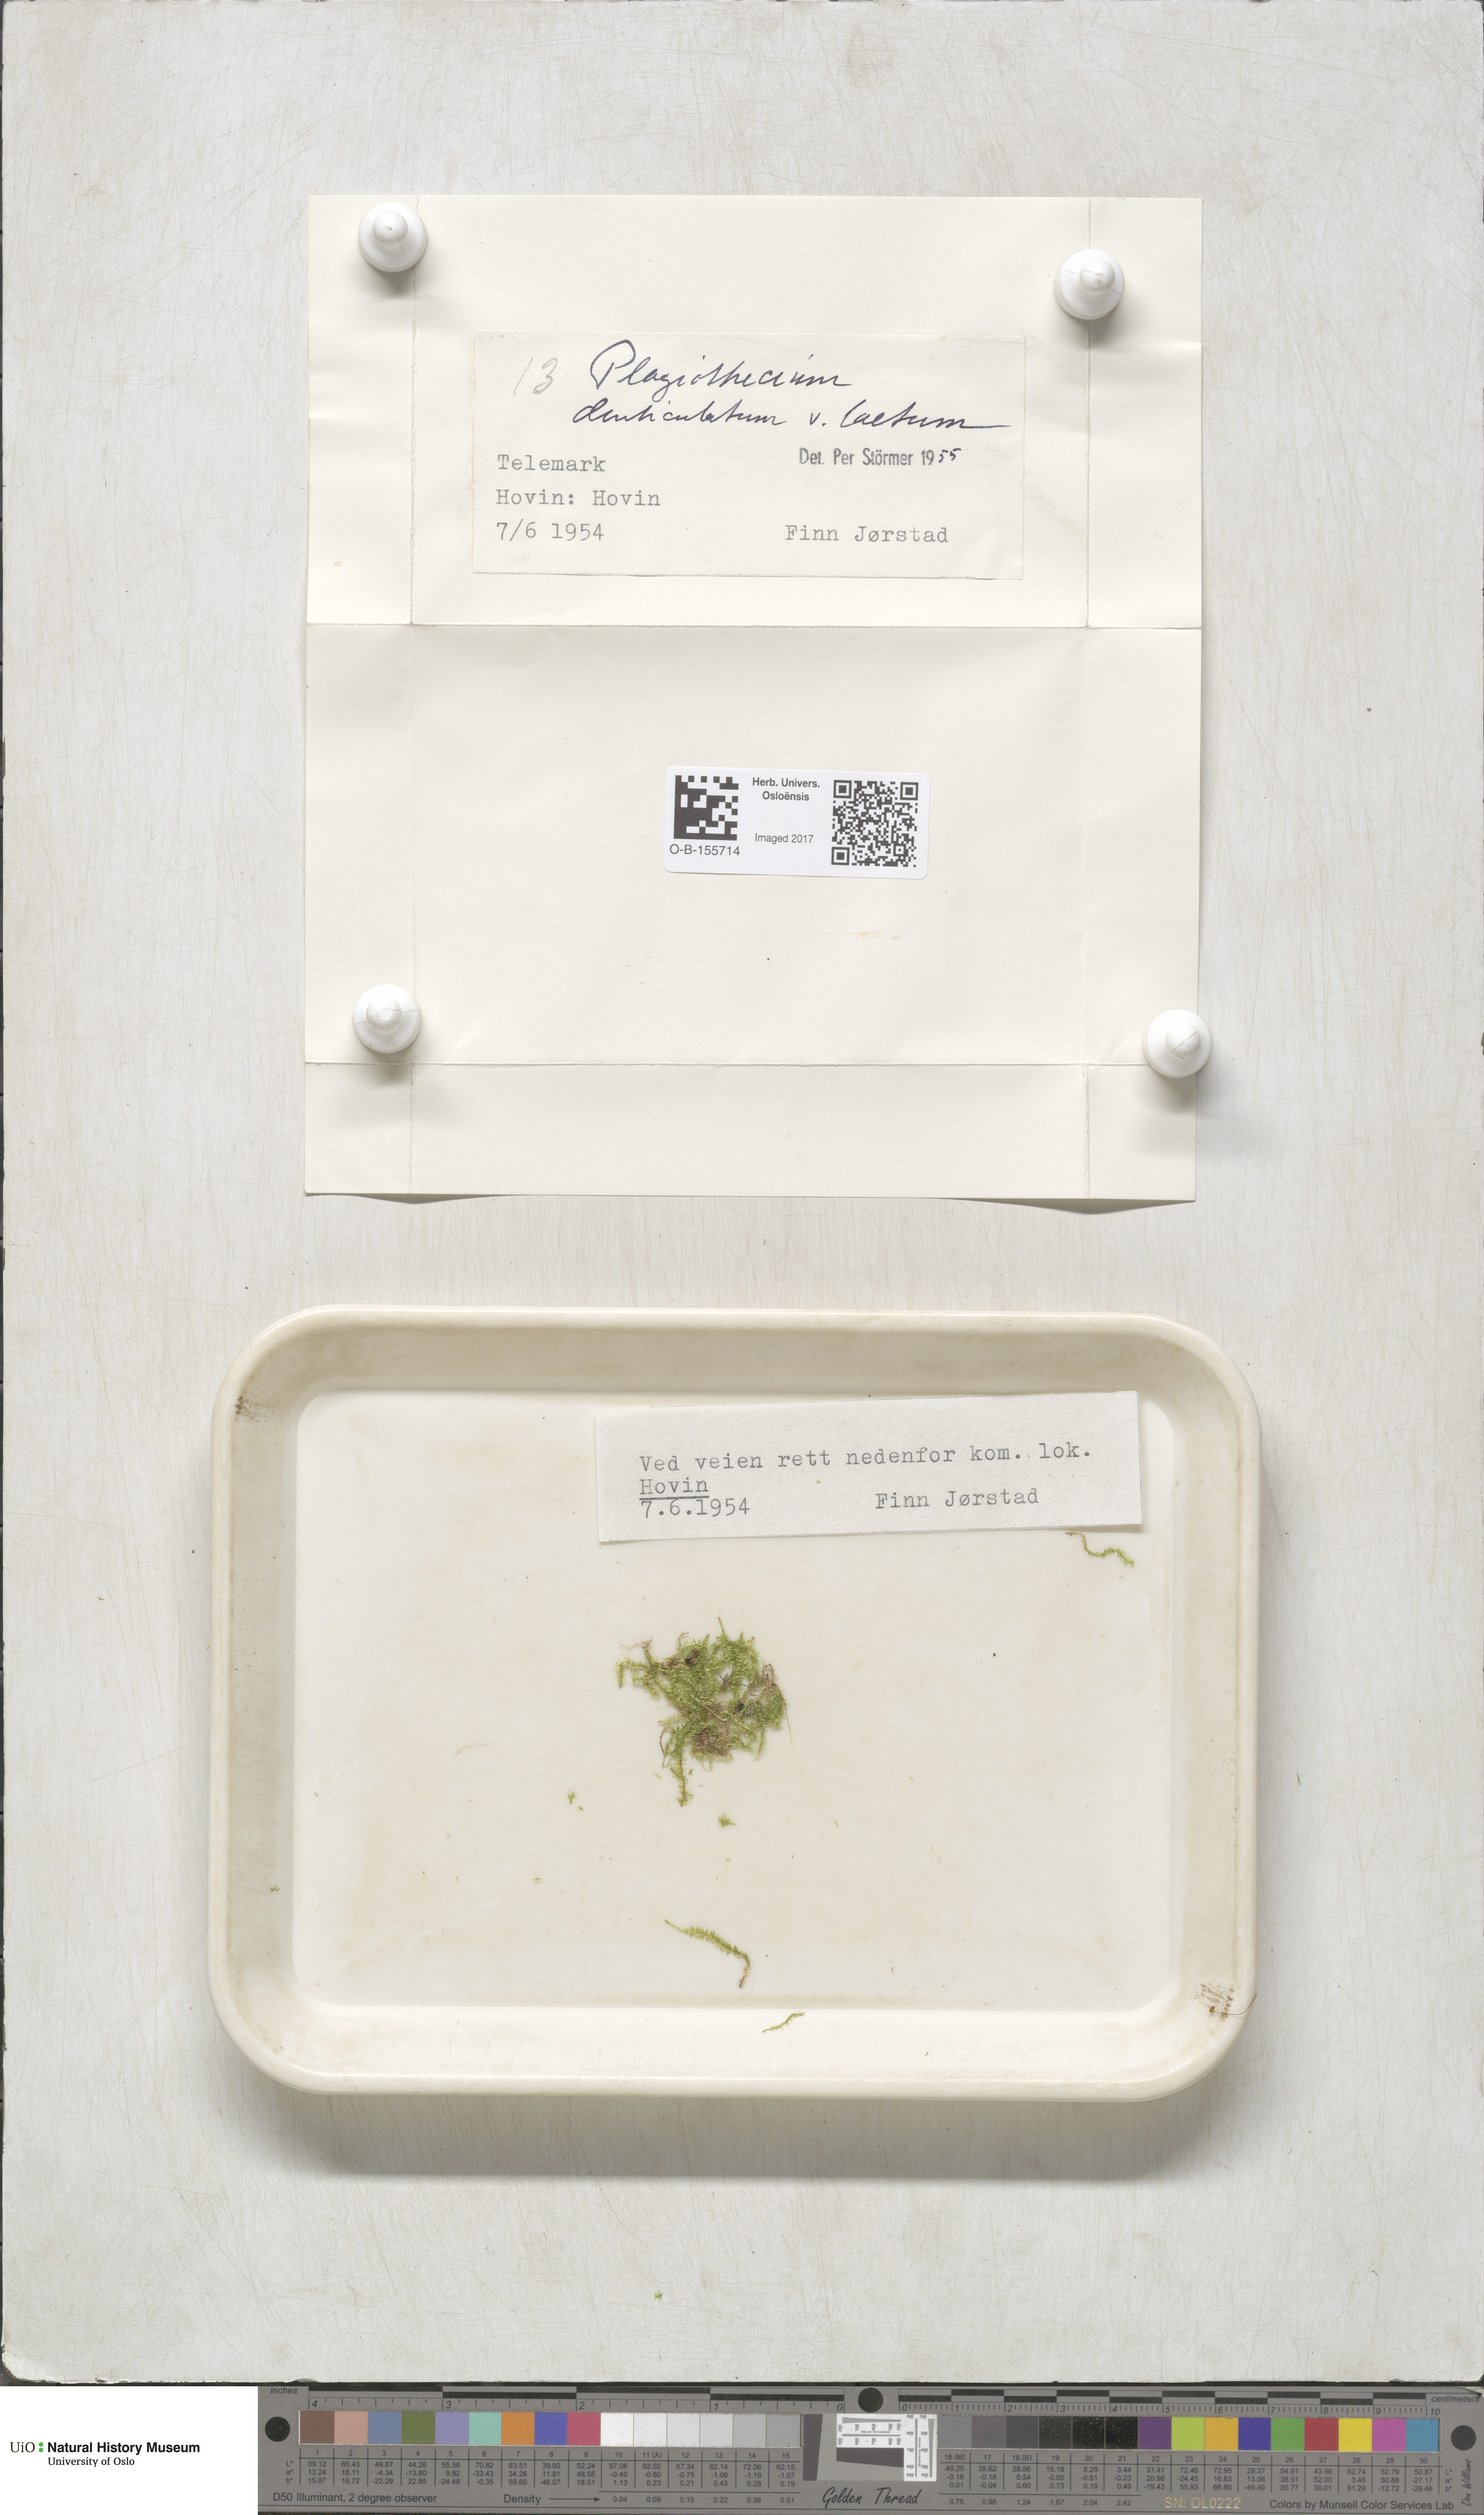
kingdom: Plantae
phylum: Bryophyta
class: Bryopsida
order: Hypnales
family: Plagiotheciaceae
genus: Plagiothecium
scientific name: Plagiothecium laetum
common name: Bright silk moss
